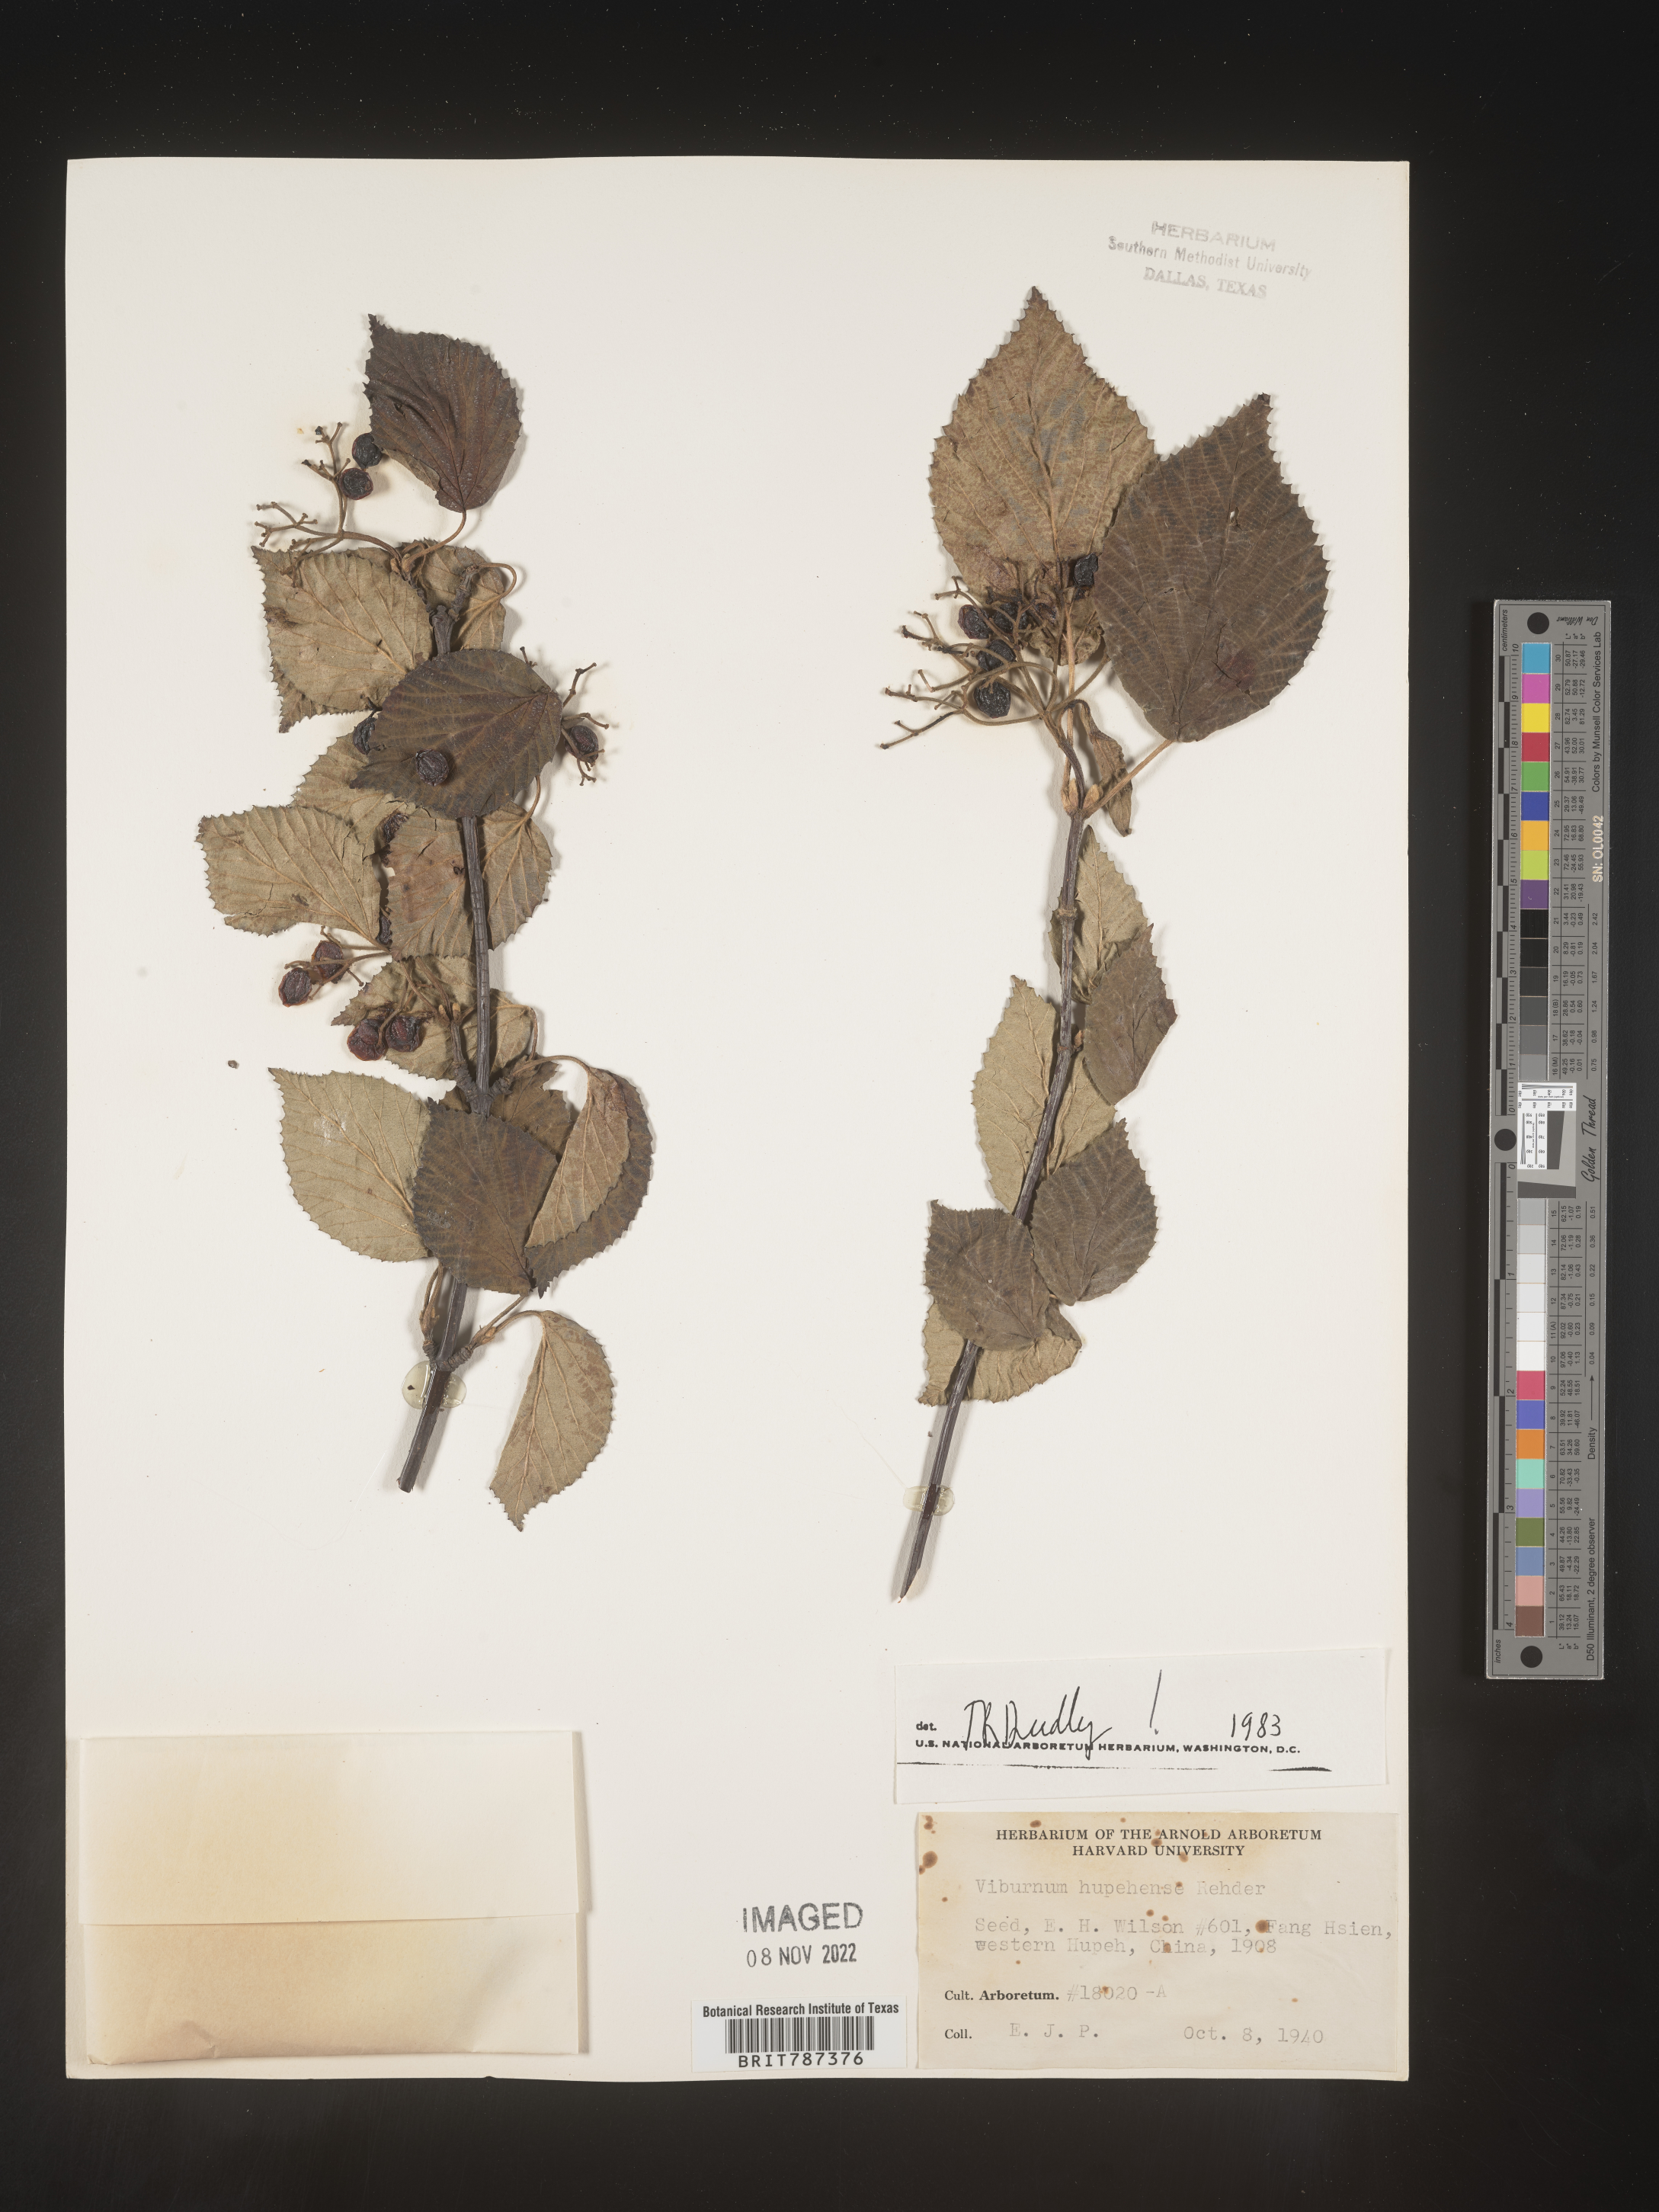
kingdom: Plantae
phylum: Tracheophyta
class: Magnoliopsida
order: Dipsacales
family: Viburnaceae
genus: Viburnum
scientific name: Viburnum
